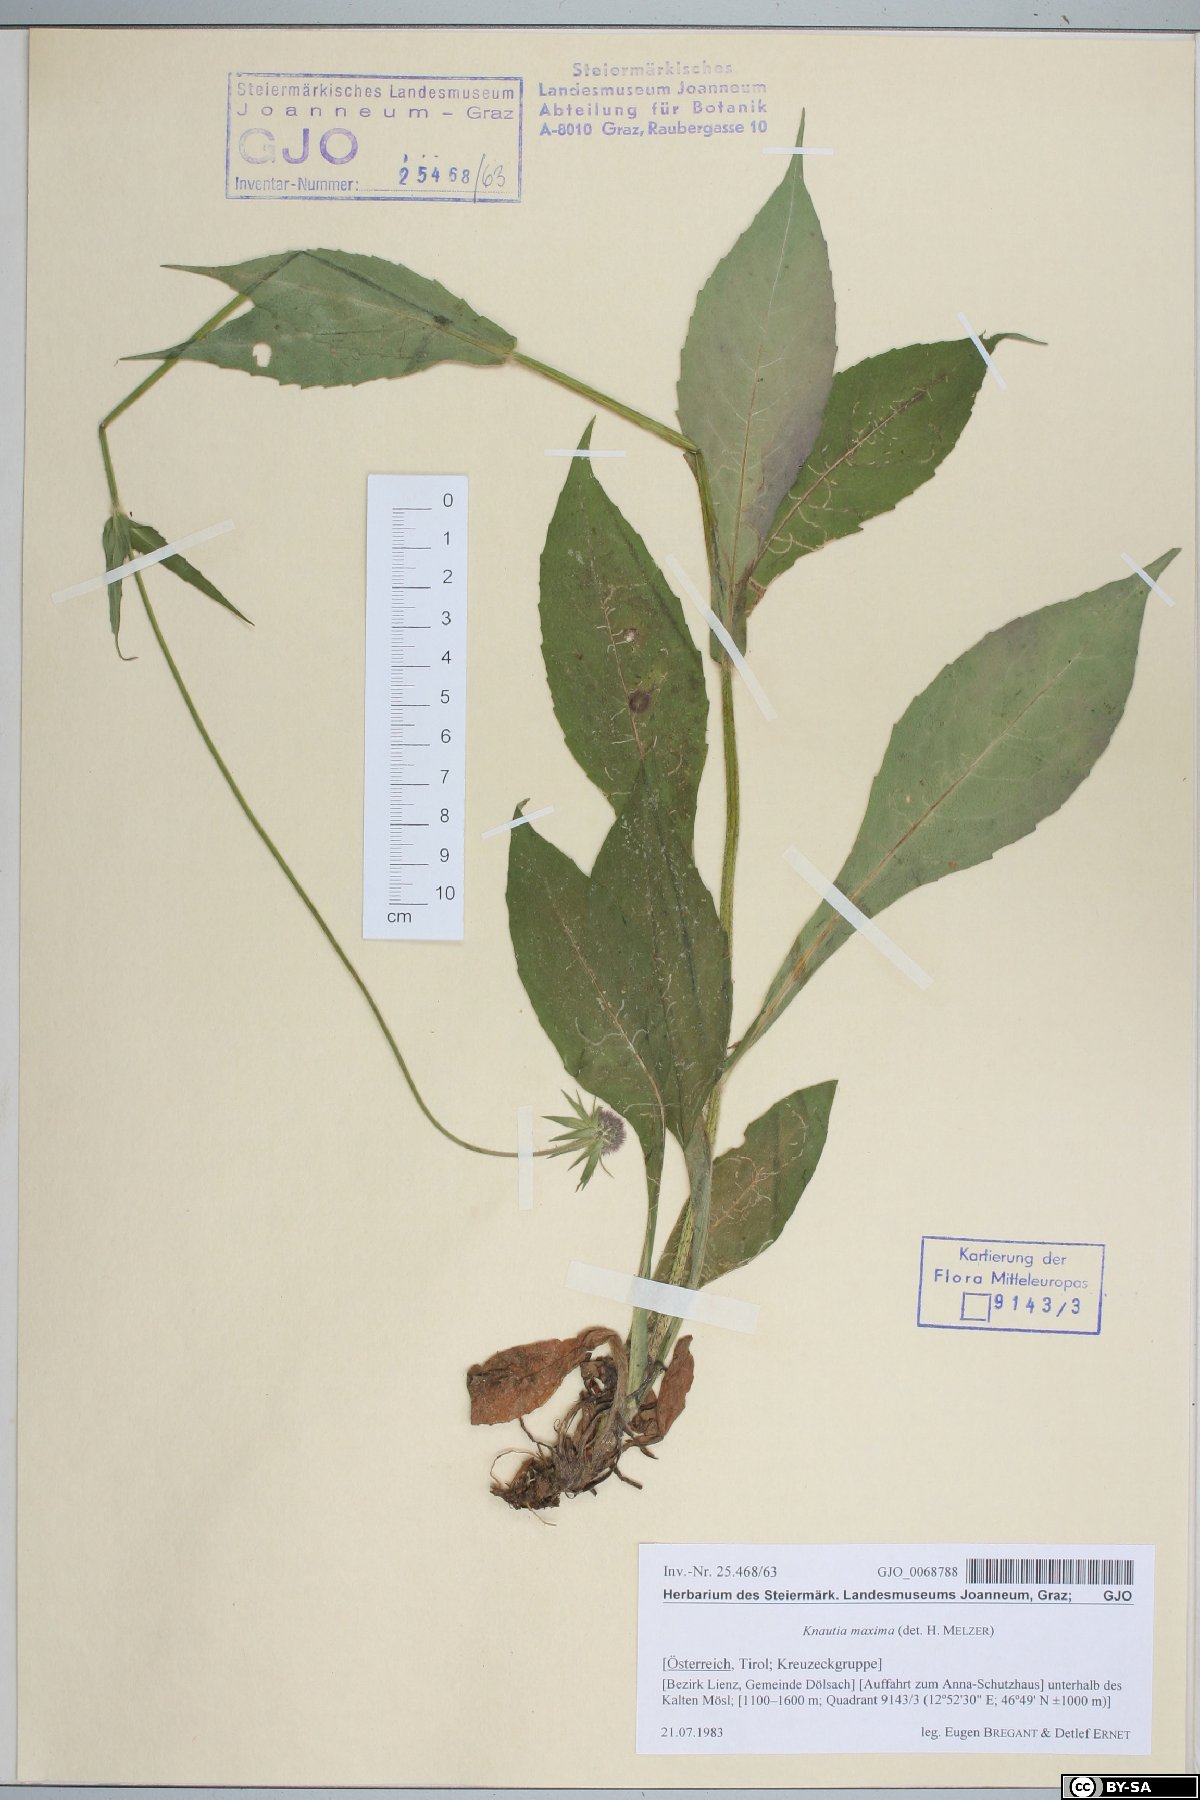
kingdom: Plantae
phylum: Tracheophyta
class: Magnoliopsida
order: Dipsacales
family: Caprifoliaceae
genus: Knautia
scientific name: Knautia dipsacifolia
